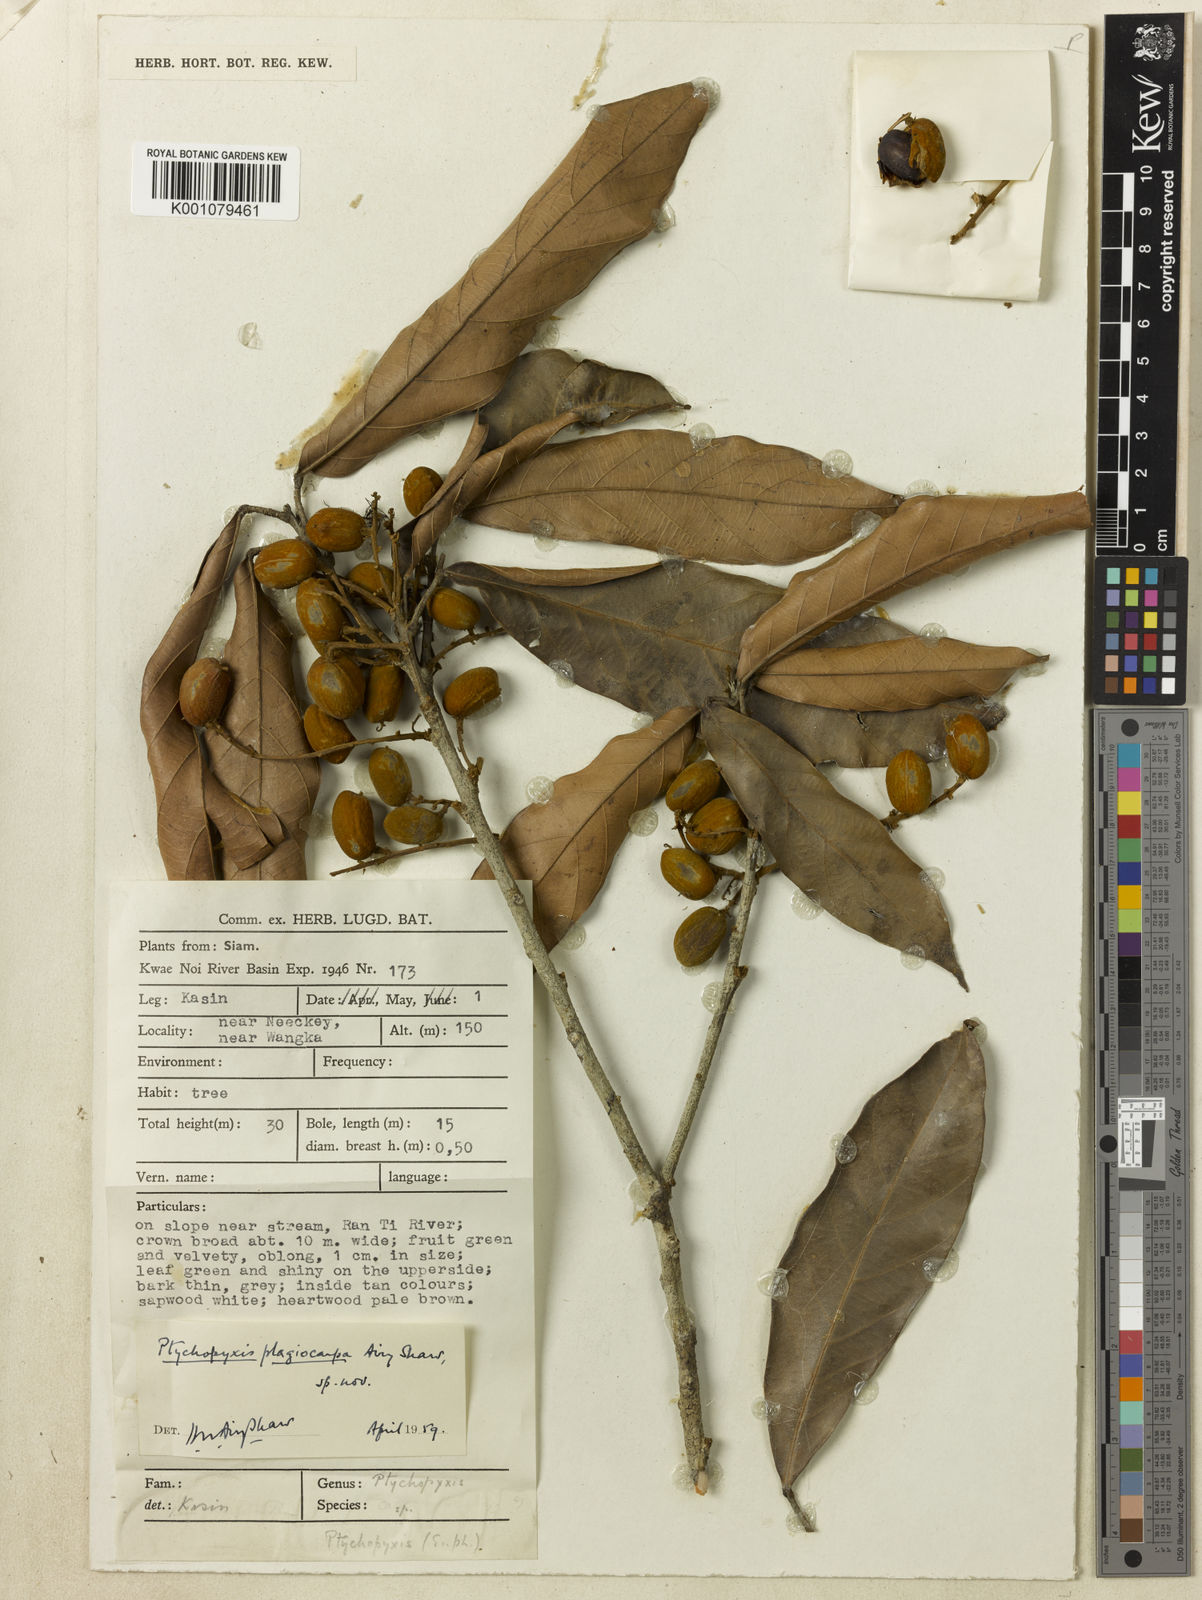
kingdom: Plantae
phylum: Tracheophyta
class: Magnoliopsida
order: Malpighiales
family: Euphorbiaceae
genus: Ptychopyxis
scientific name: Ptychopyxis plagiocarpa
